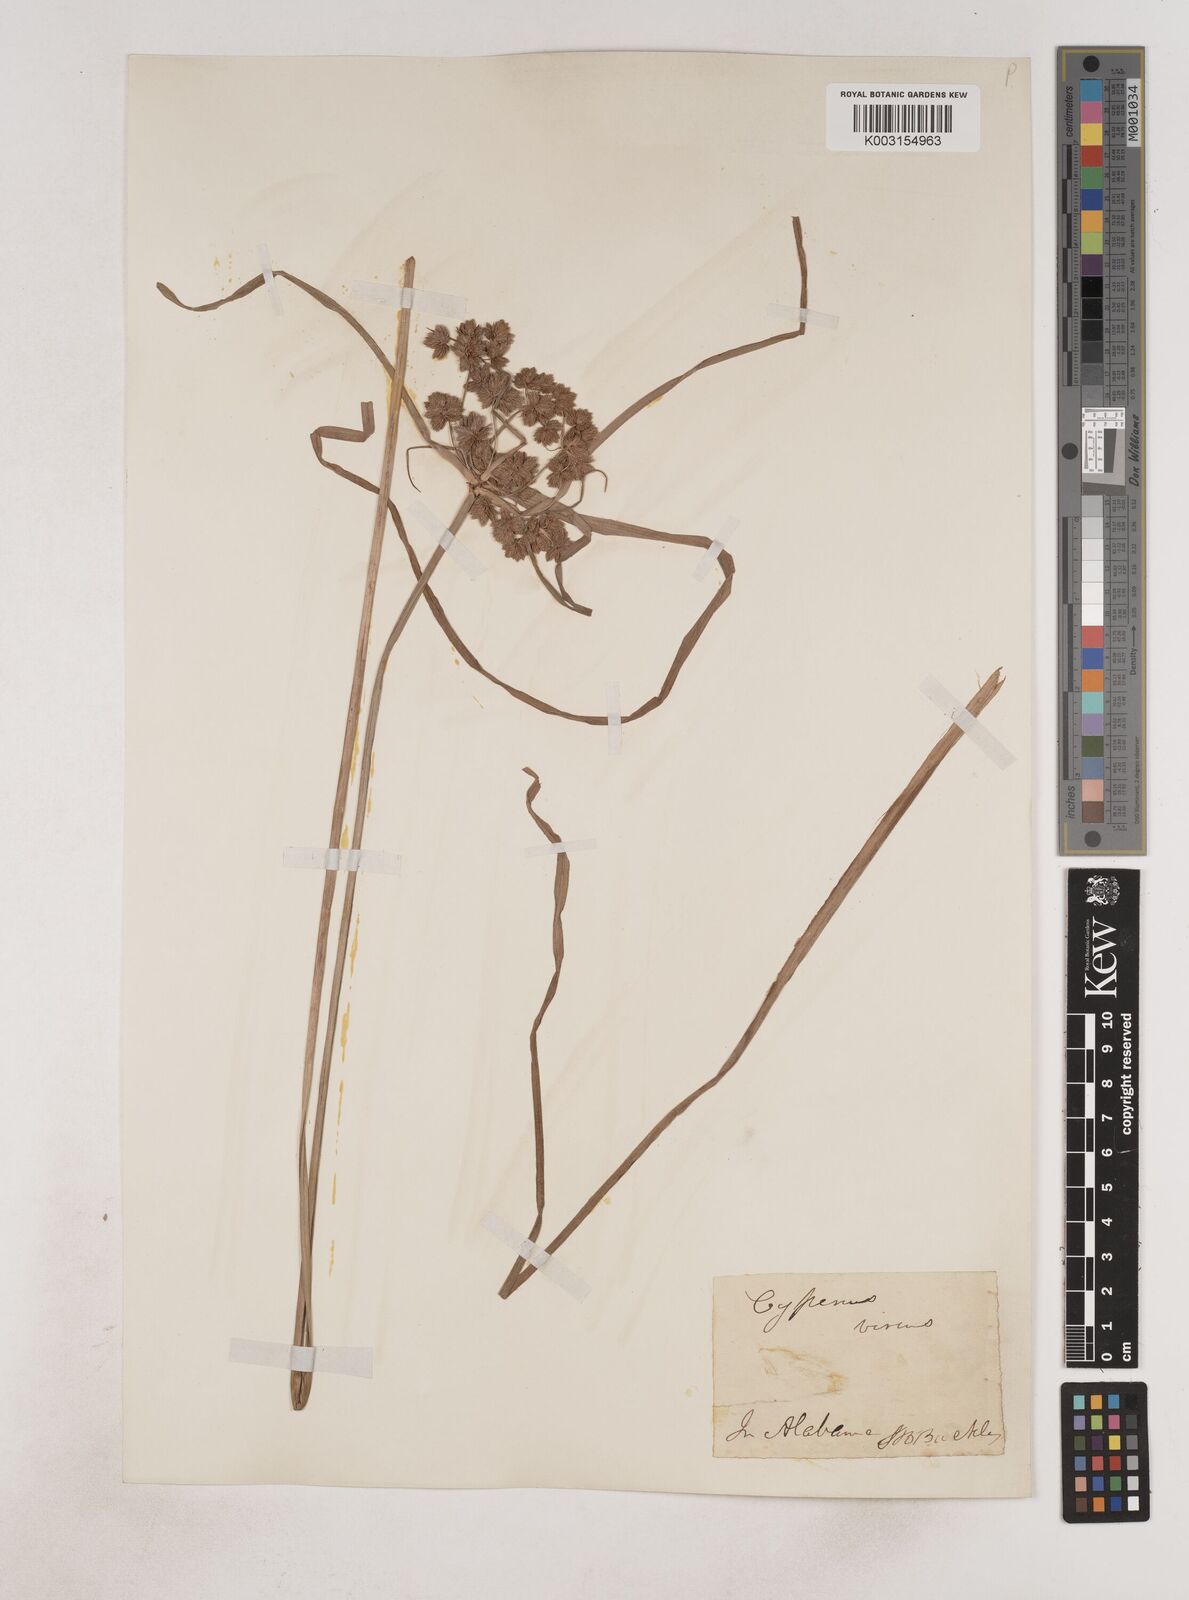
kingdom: Plantae
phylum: Tracheophyta
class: Liliopsida
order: Poales
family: Cyperaceae
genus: Cyperus
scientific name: Cyperus virens
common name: Green flatsedge
